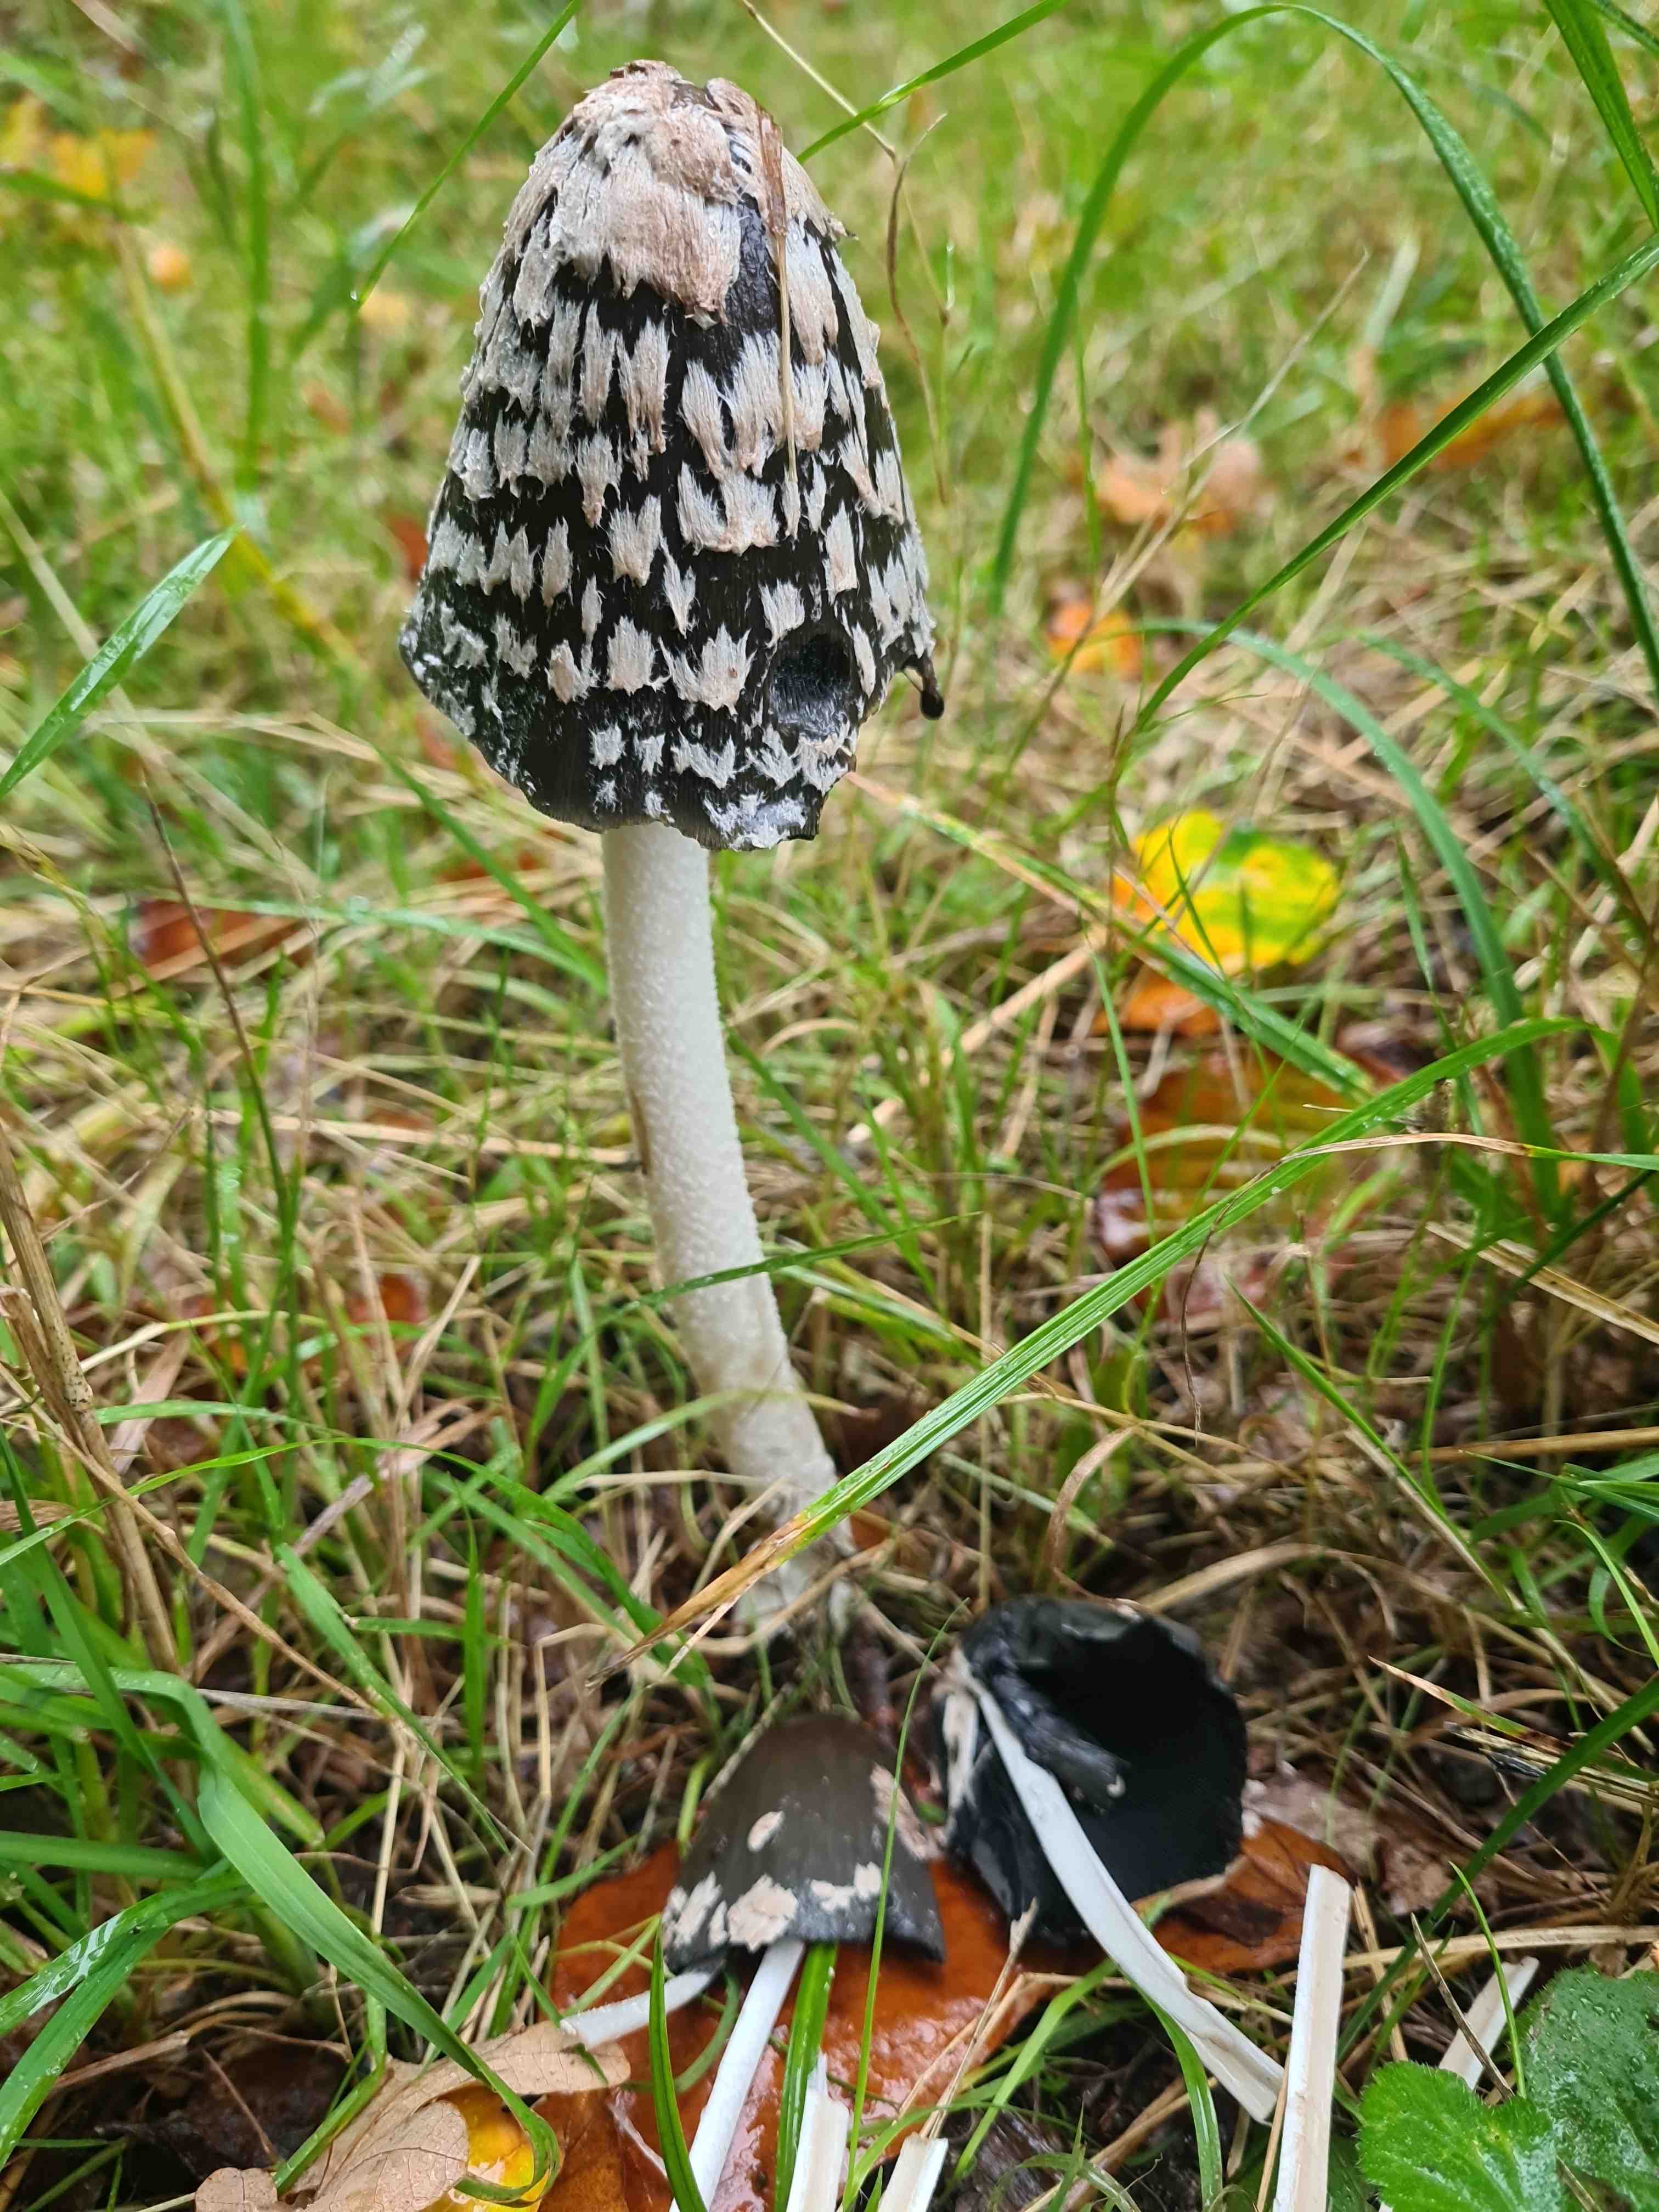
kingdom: Fungi
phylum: Basidiomycota
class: Agaricomycetes
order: Agaricales
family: Psathyrellaceae
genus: Coprinopsis
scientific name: Coprinopsis picacea
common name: skade-blækhat
